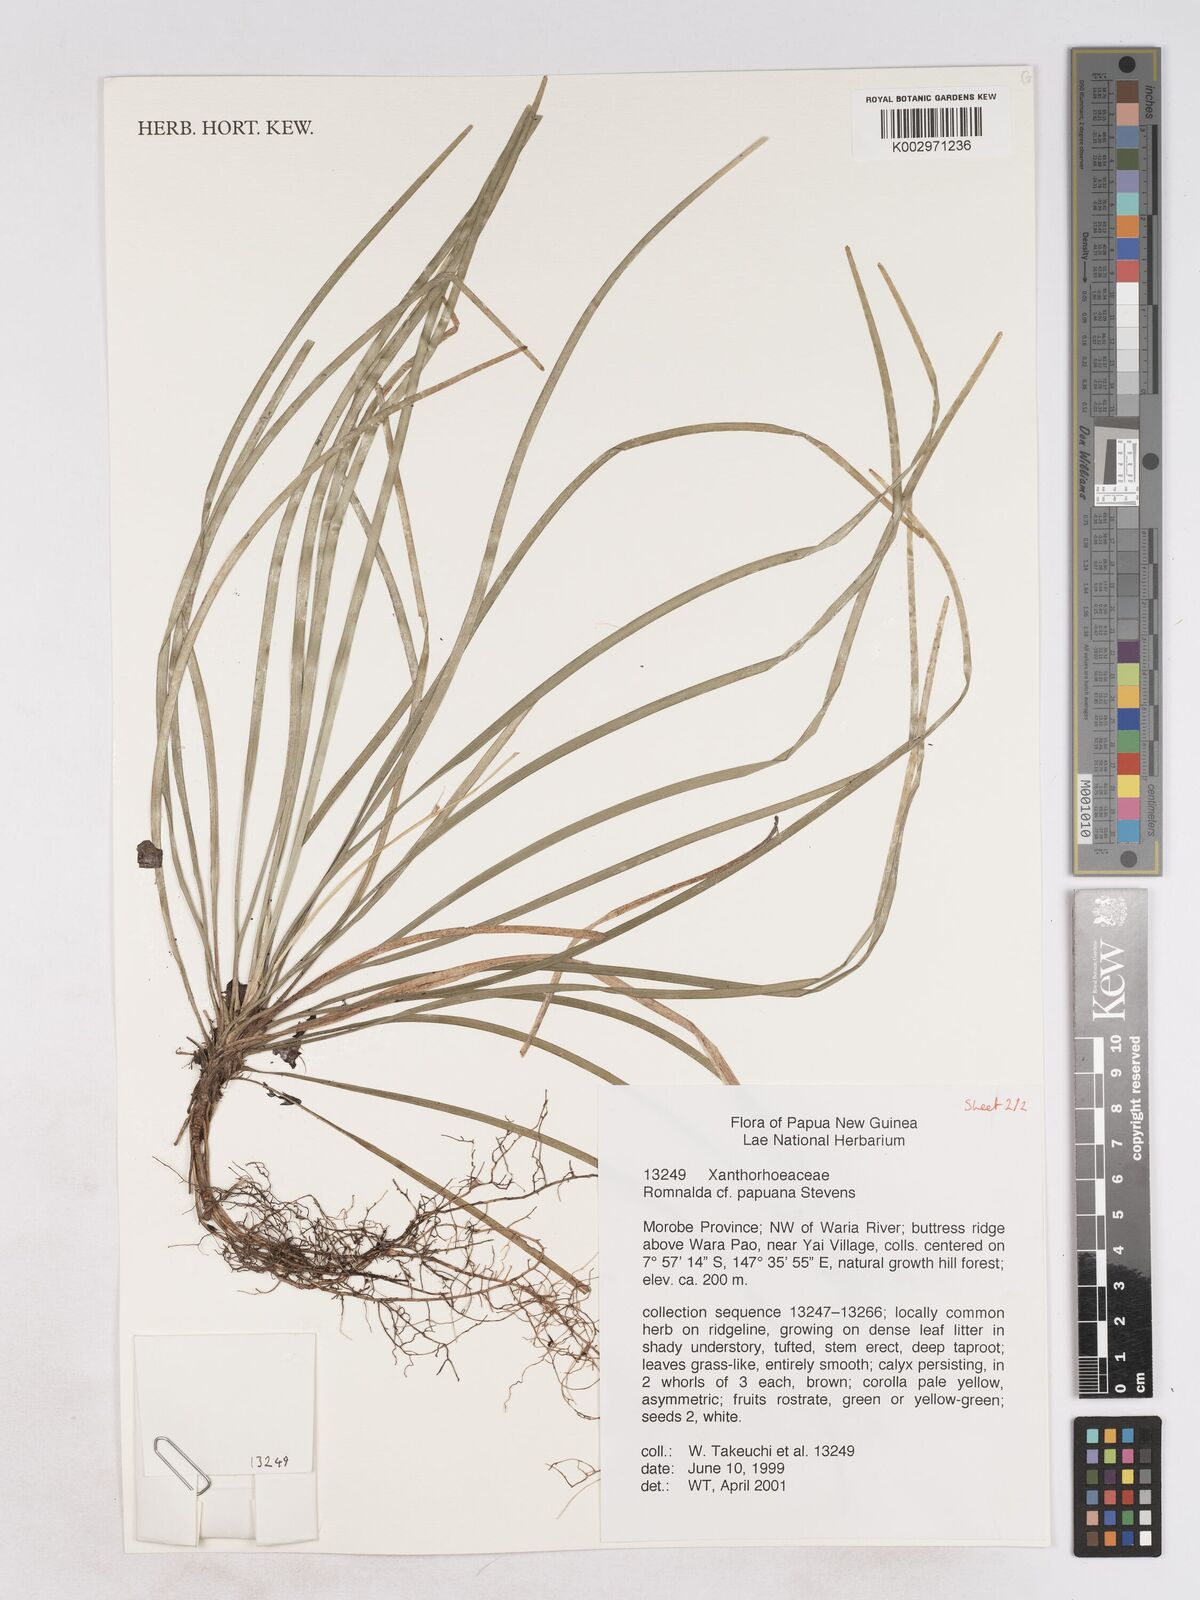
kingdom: Plantae
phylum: Tracheophyta
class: Liliopsida
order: Asparagales
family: Asparagaceae
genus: Romnalda
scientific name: Romnalda papuana
